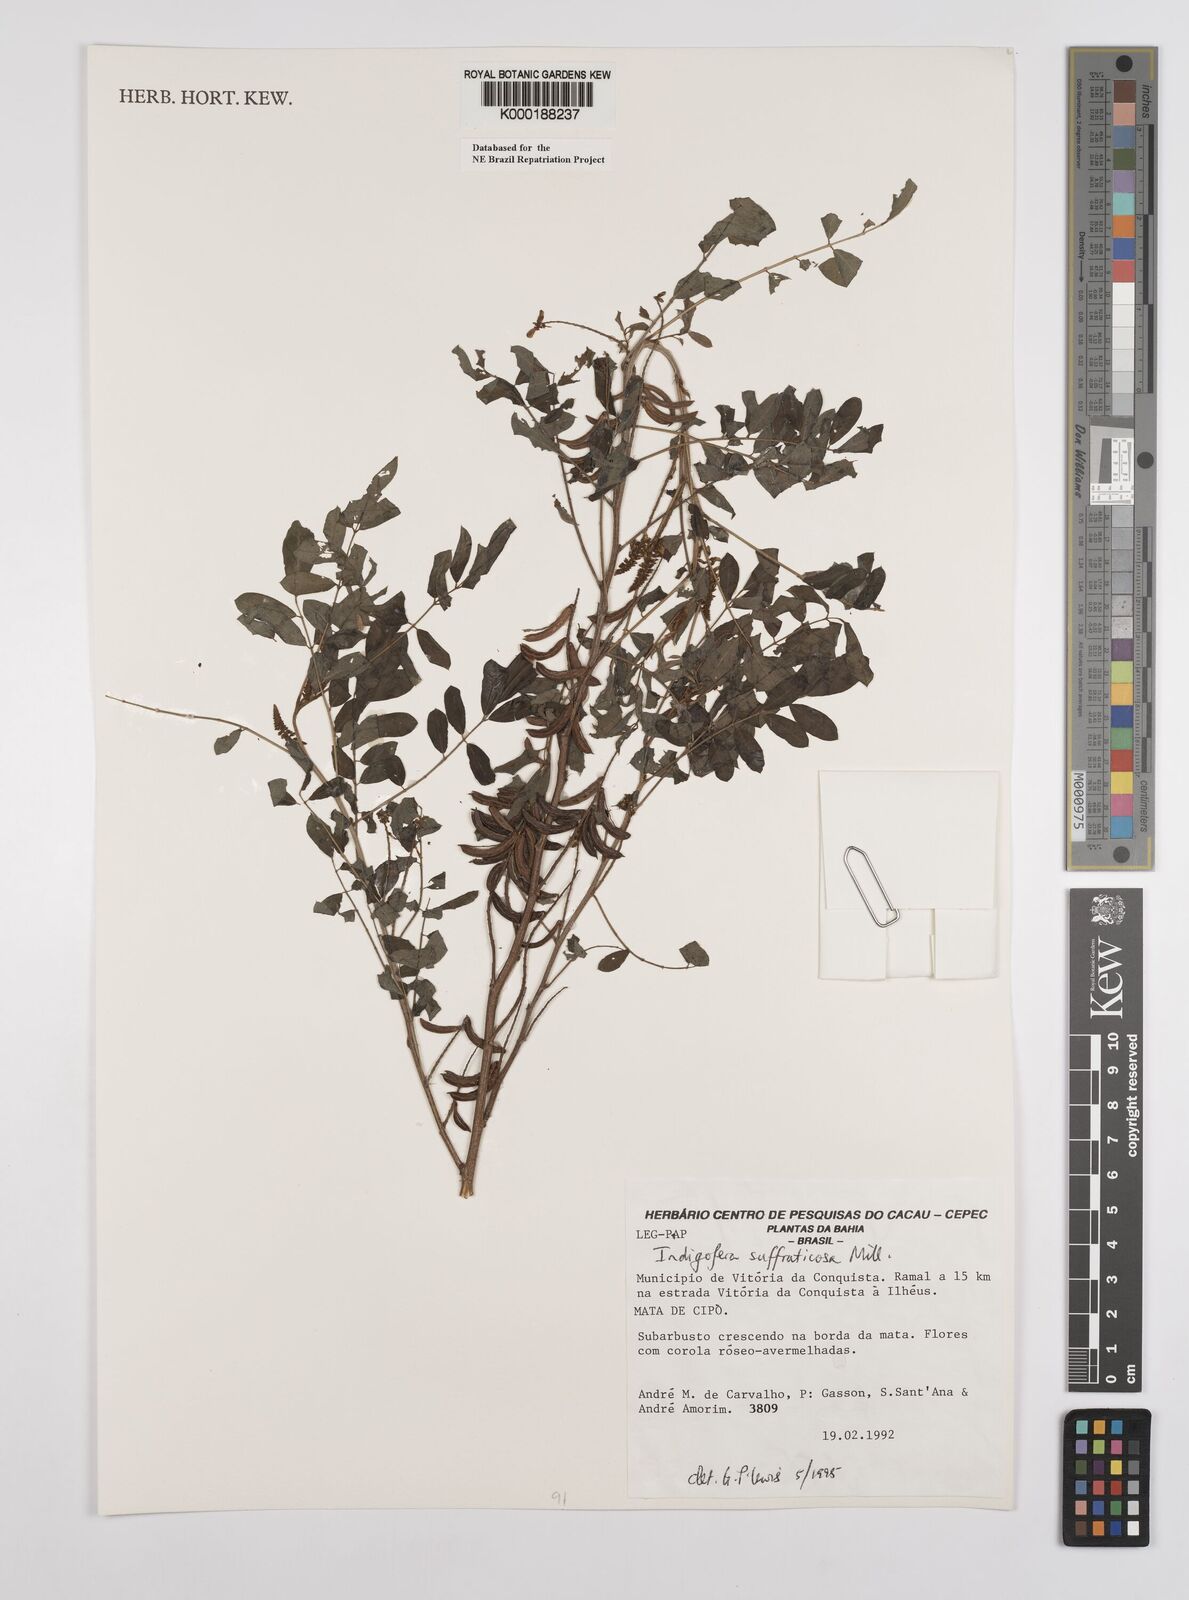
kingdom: Plantae
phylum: Tracheophyta
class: Magnoliopsida
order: Fabales
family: Fabaceae
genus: Indigofera
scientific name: Indigofera suffruticosa
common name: Anil de pasto
